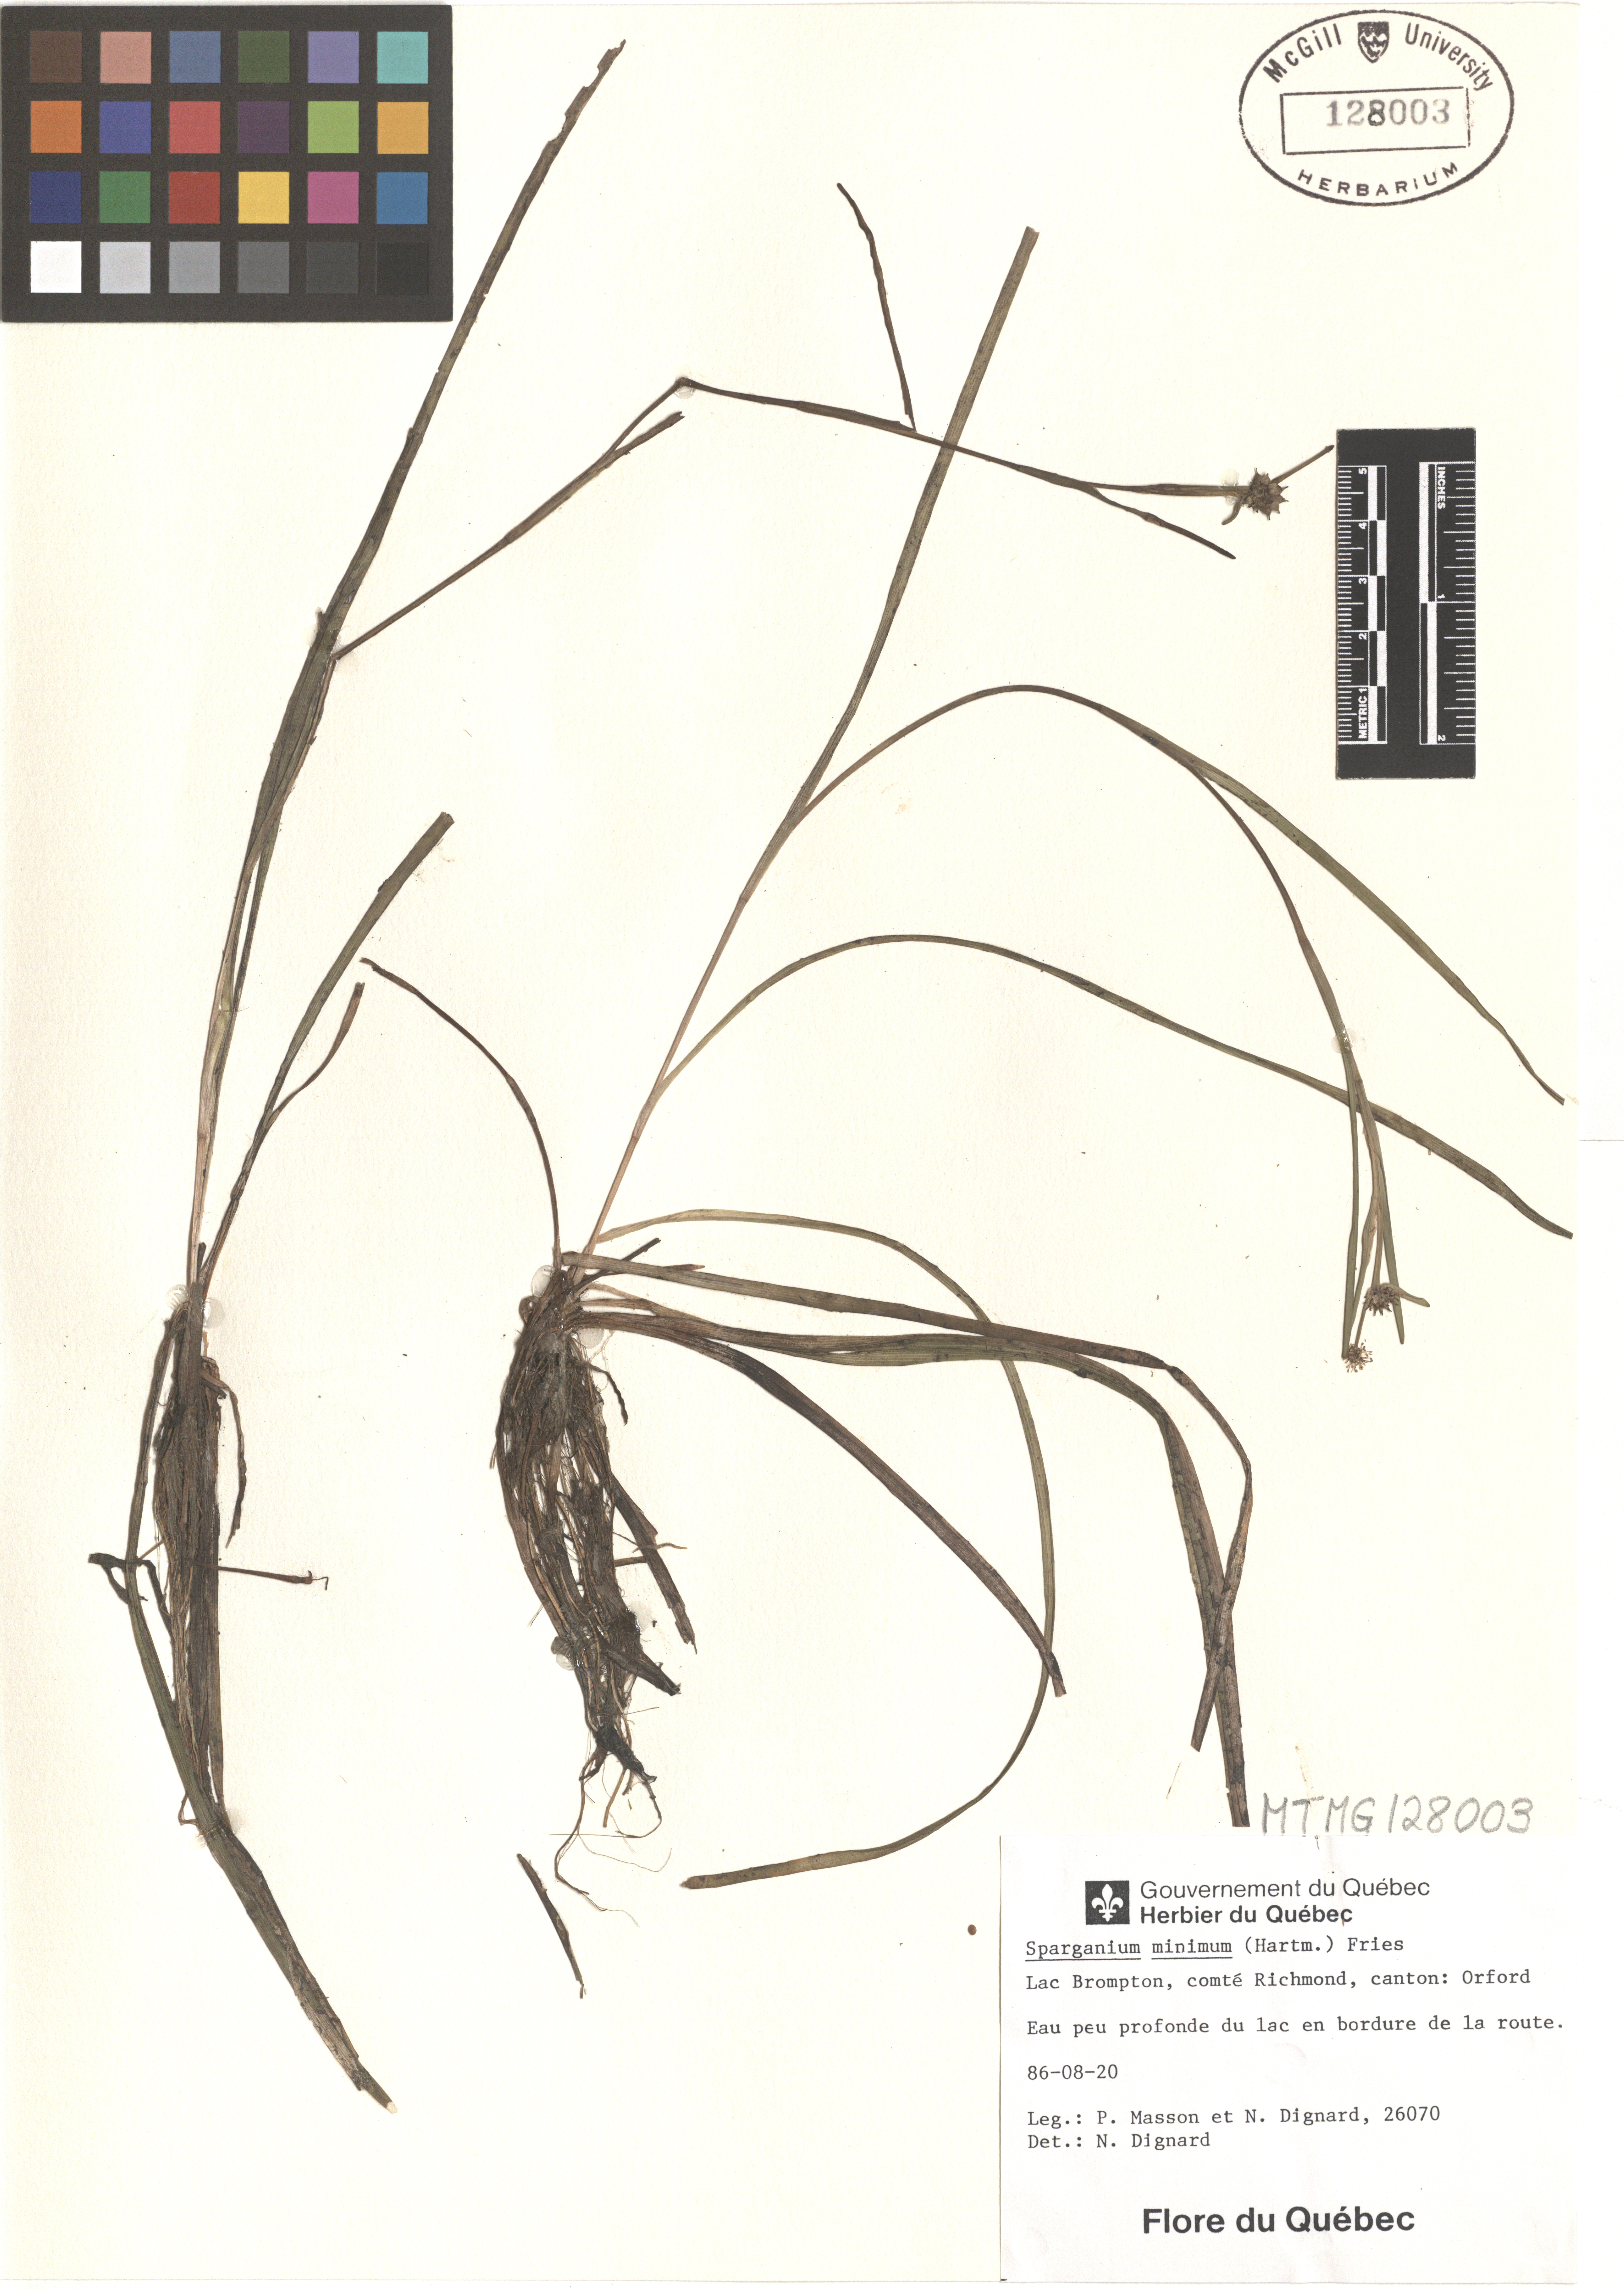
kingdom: Plantae
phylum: Tracheophyta
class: Liliopsida
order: Poales
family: Typhaceae
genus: Sparganium
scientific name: Sparganium natans
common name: Least bur-reed
